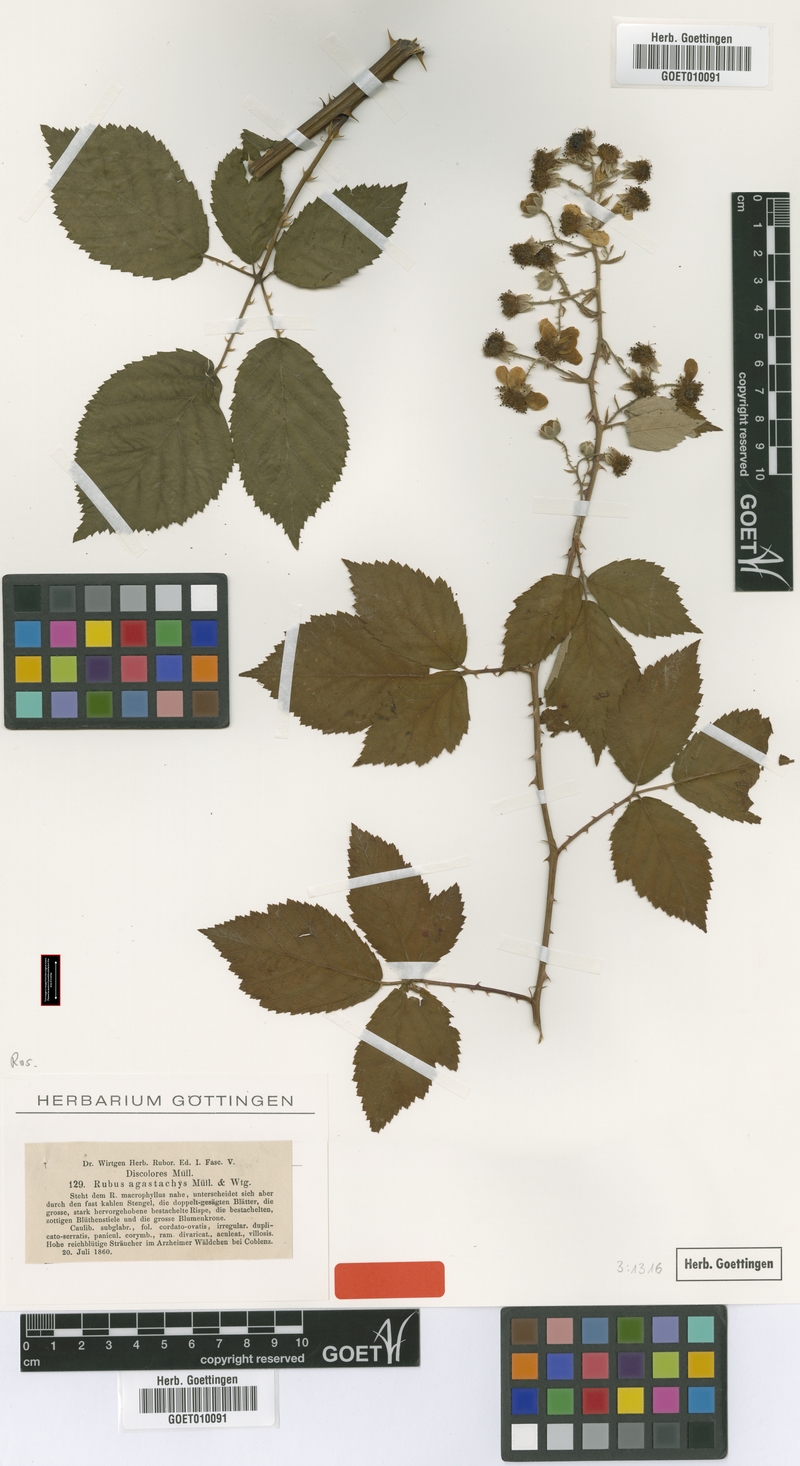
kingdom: Plantae
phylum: Tracheophyta
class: Magnoliopsida
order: Rosales
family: Rosaceae
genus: Rubus
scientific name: Rubus geniculatus
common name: False himalayan berry
